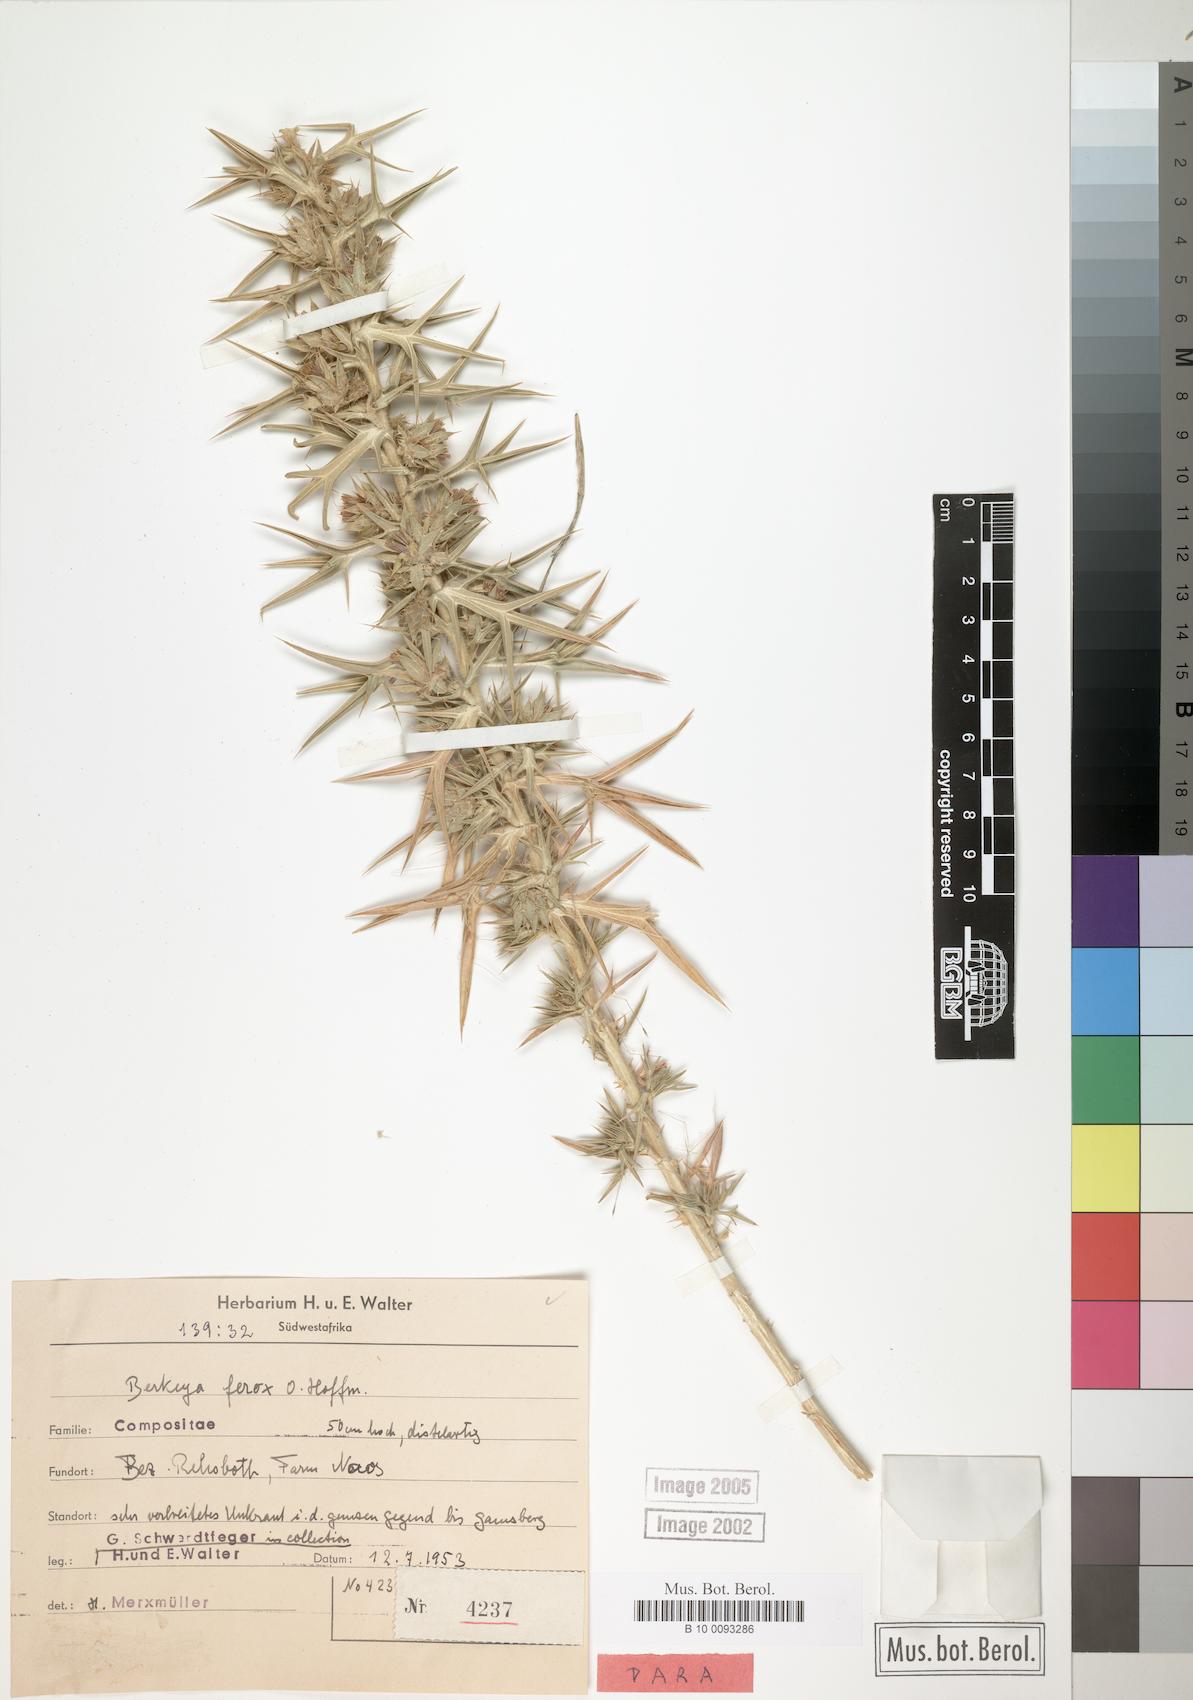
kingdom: Plantae
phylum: Tracheophyta
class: Magnoliopsida
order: Asterales
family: Asteraceae
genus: Berkheya
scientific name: Berkheya ferox
